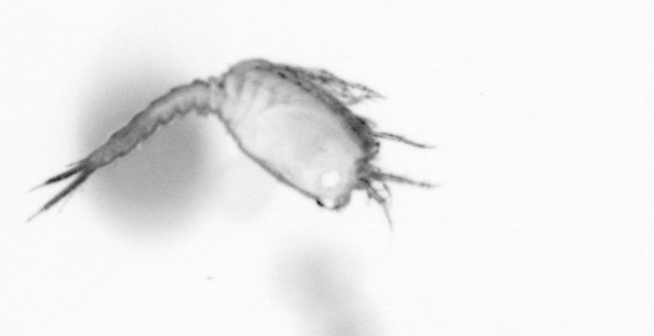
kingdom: Animalia
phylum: Annelida
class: Polychaeta
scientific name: Polychaeta
